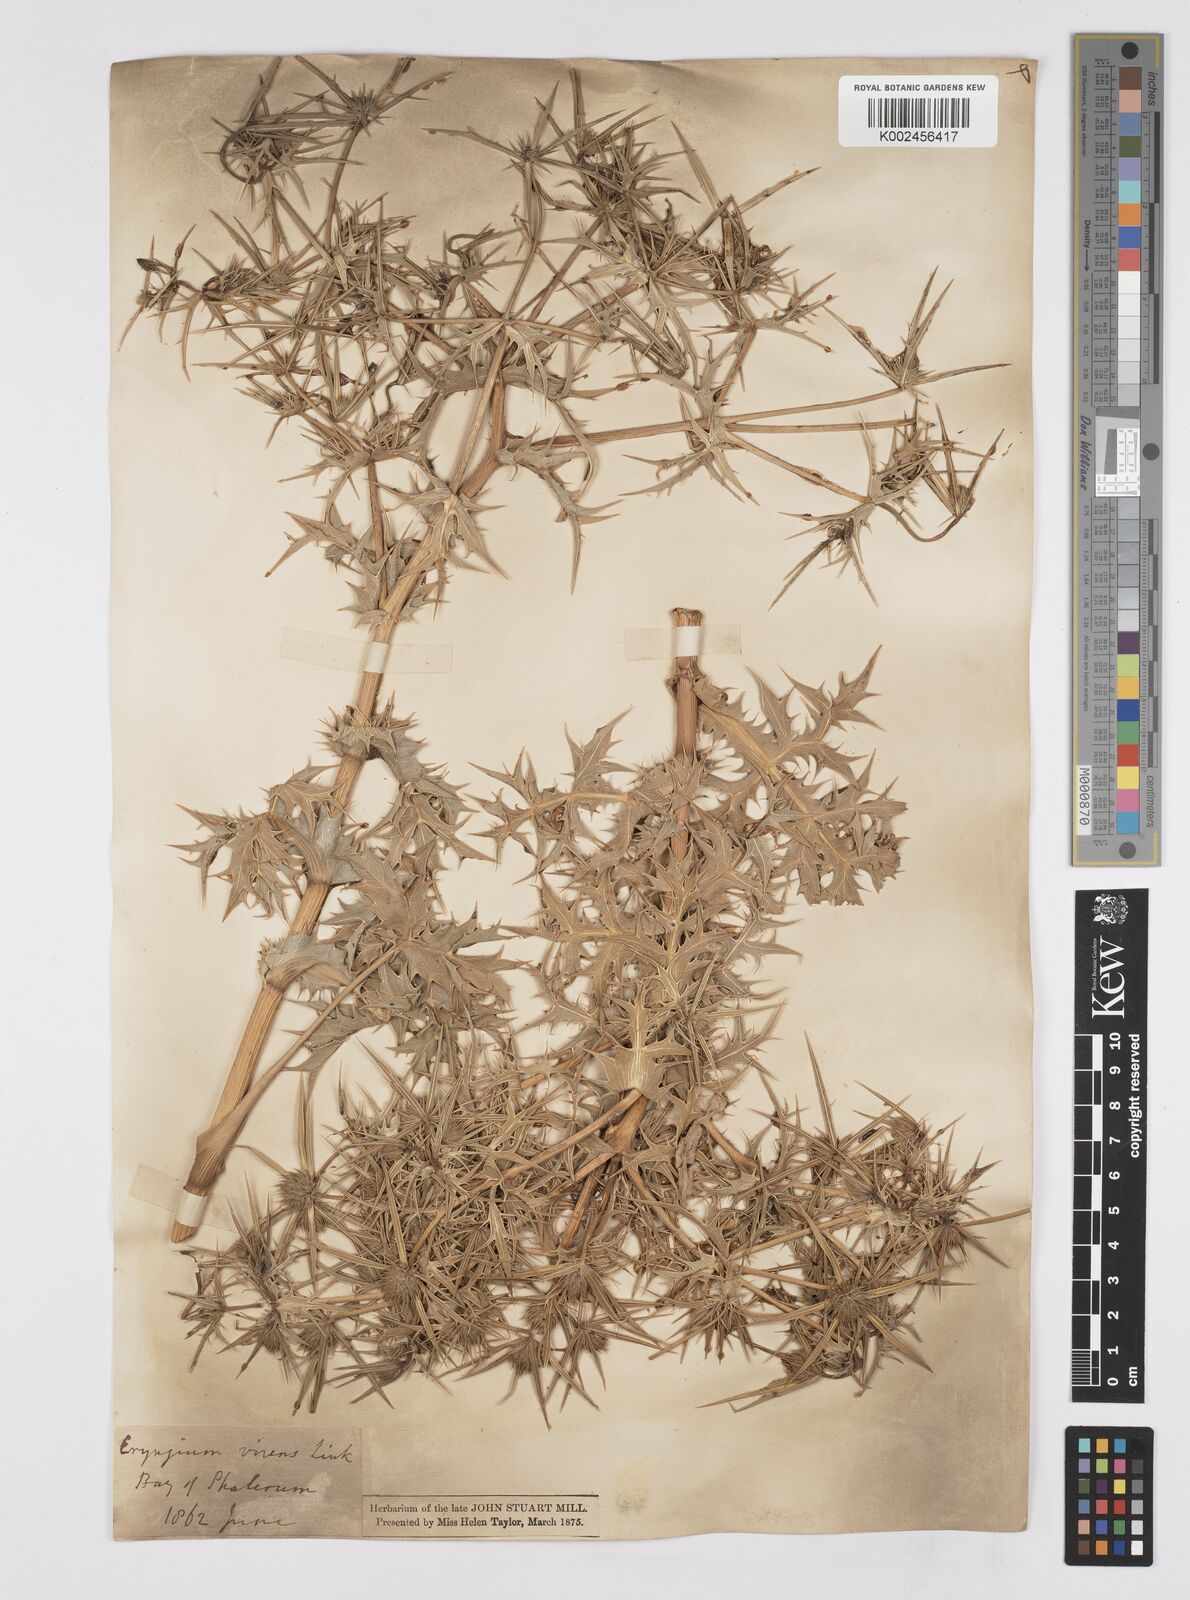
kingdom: Plantae
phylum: Tracheophyta
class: Magnoliopsida
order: Apiales
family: Apiaceae
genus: Eryngium
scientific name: Eryngium campestre
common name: Field eryngo
